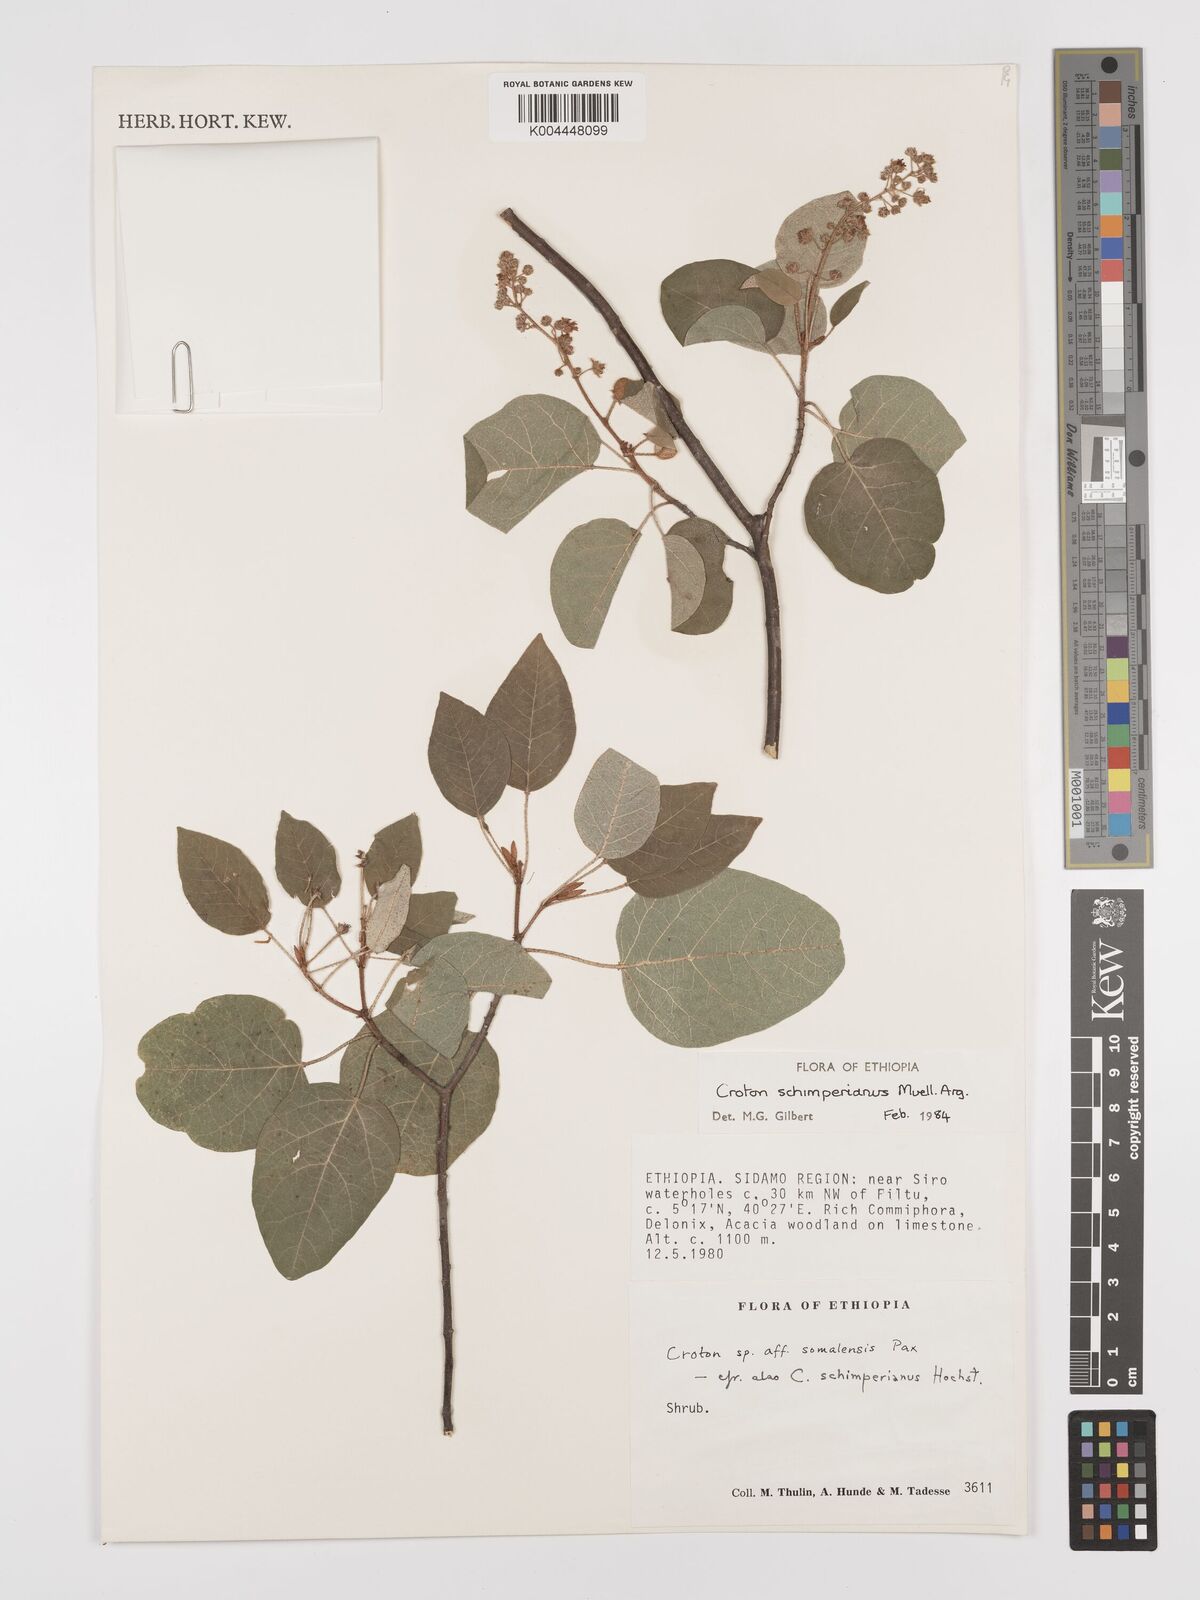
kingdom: Plantae
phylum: Tracheophyta
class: Magnoliopsida
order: Malpighiales
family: Euphorbiaceae
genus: Croton
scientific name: Croton schimperianus
